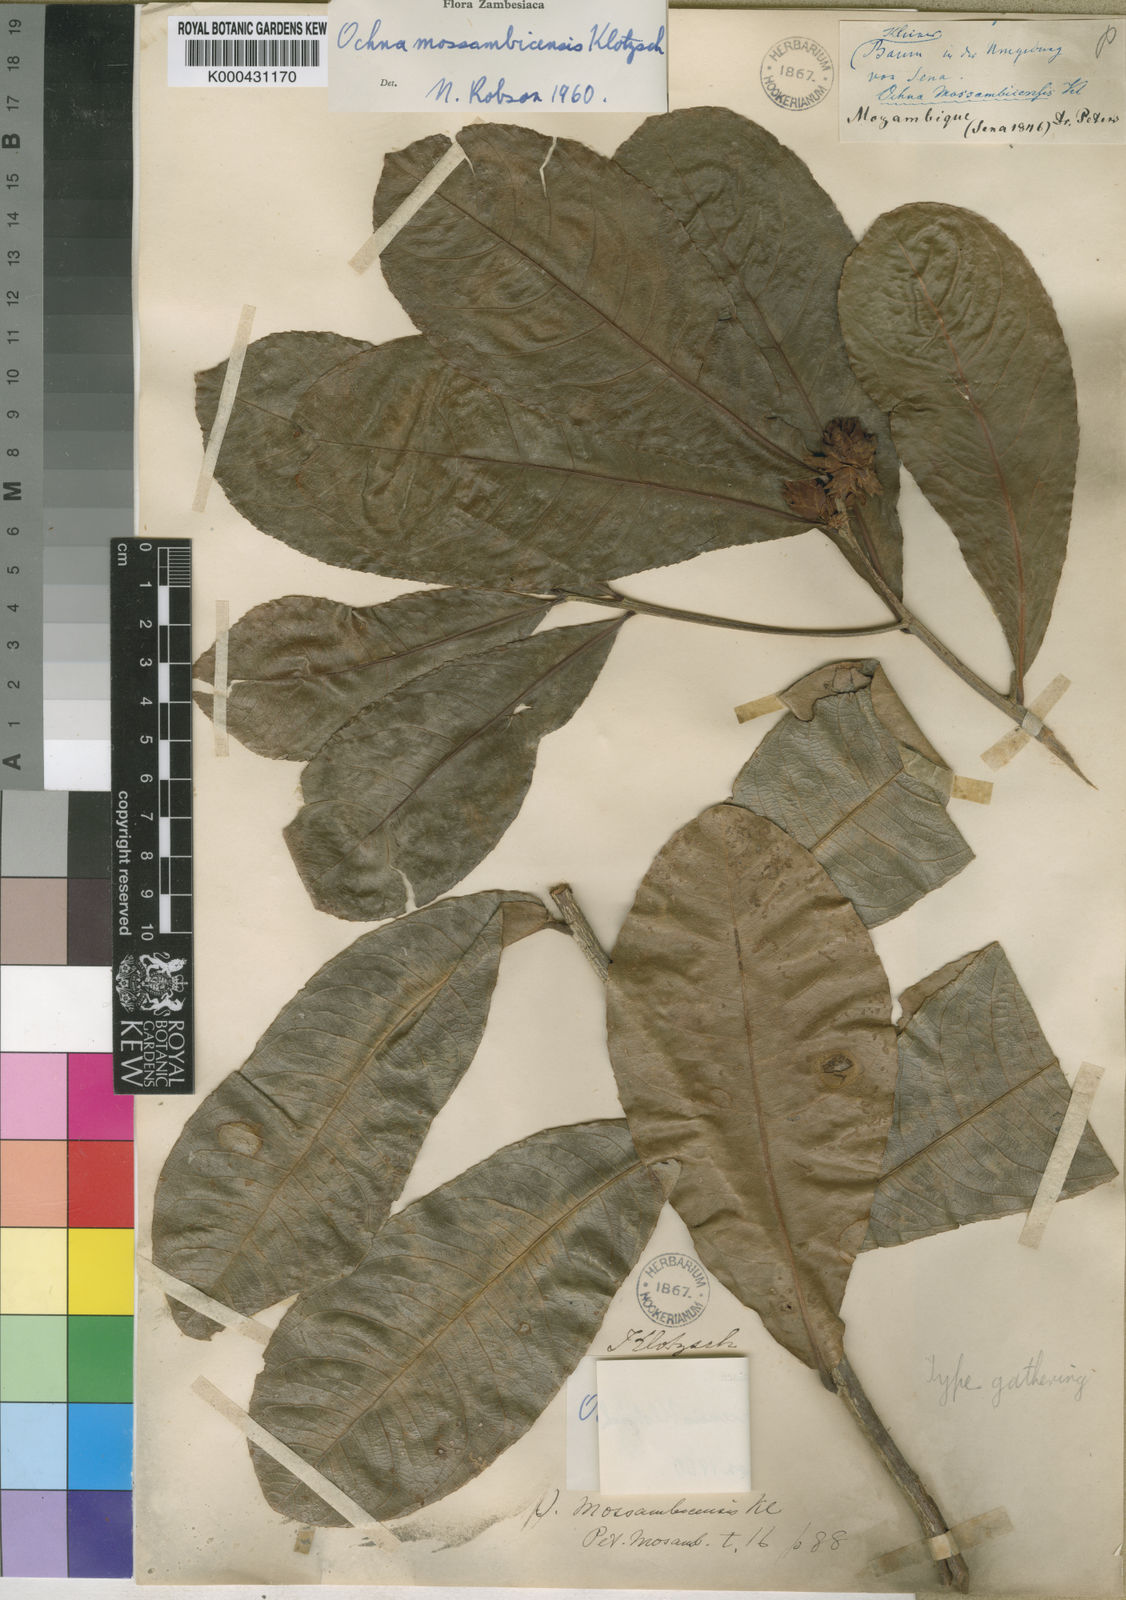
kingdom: Plantae
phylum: Tracheophyta
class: Magnoliopsida
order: Malpighiales
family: Ochnaceae
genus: Ochna
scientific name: Ochna atropurpurea
